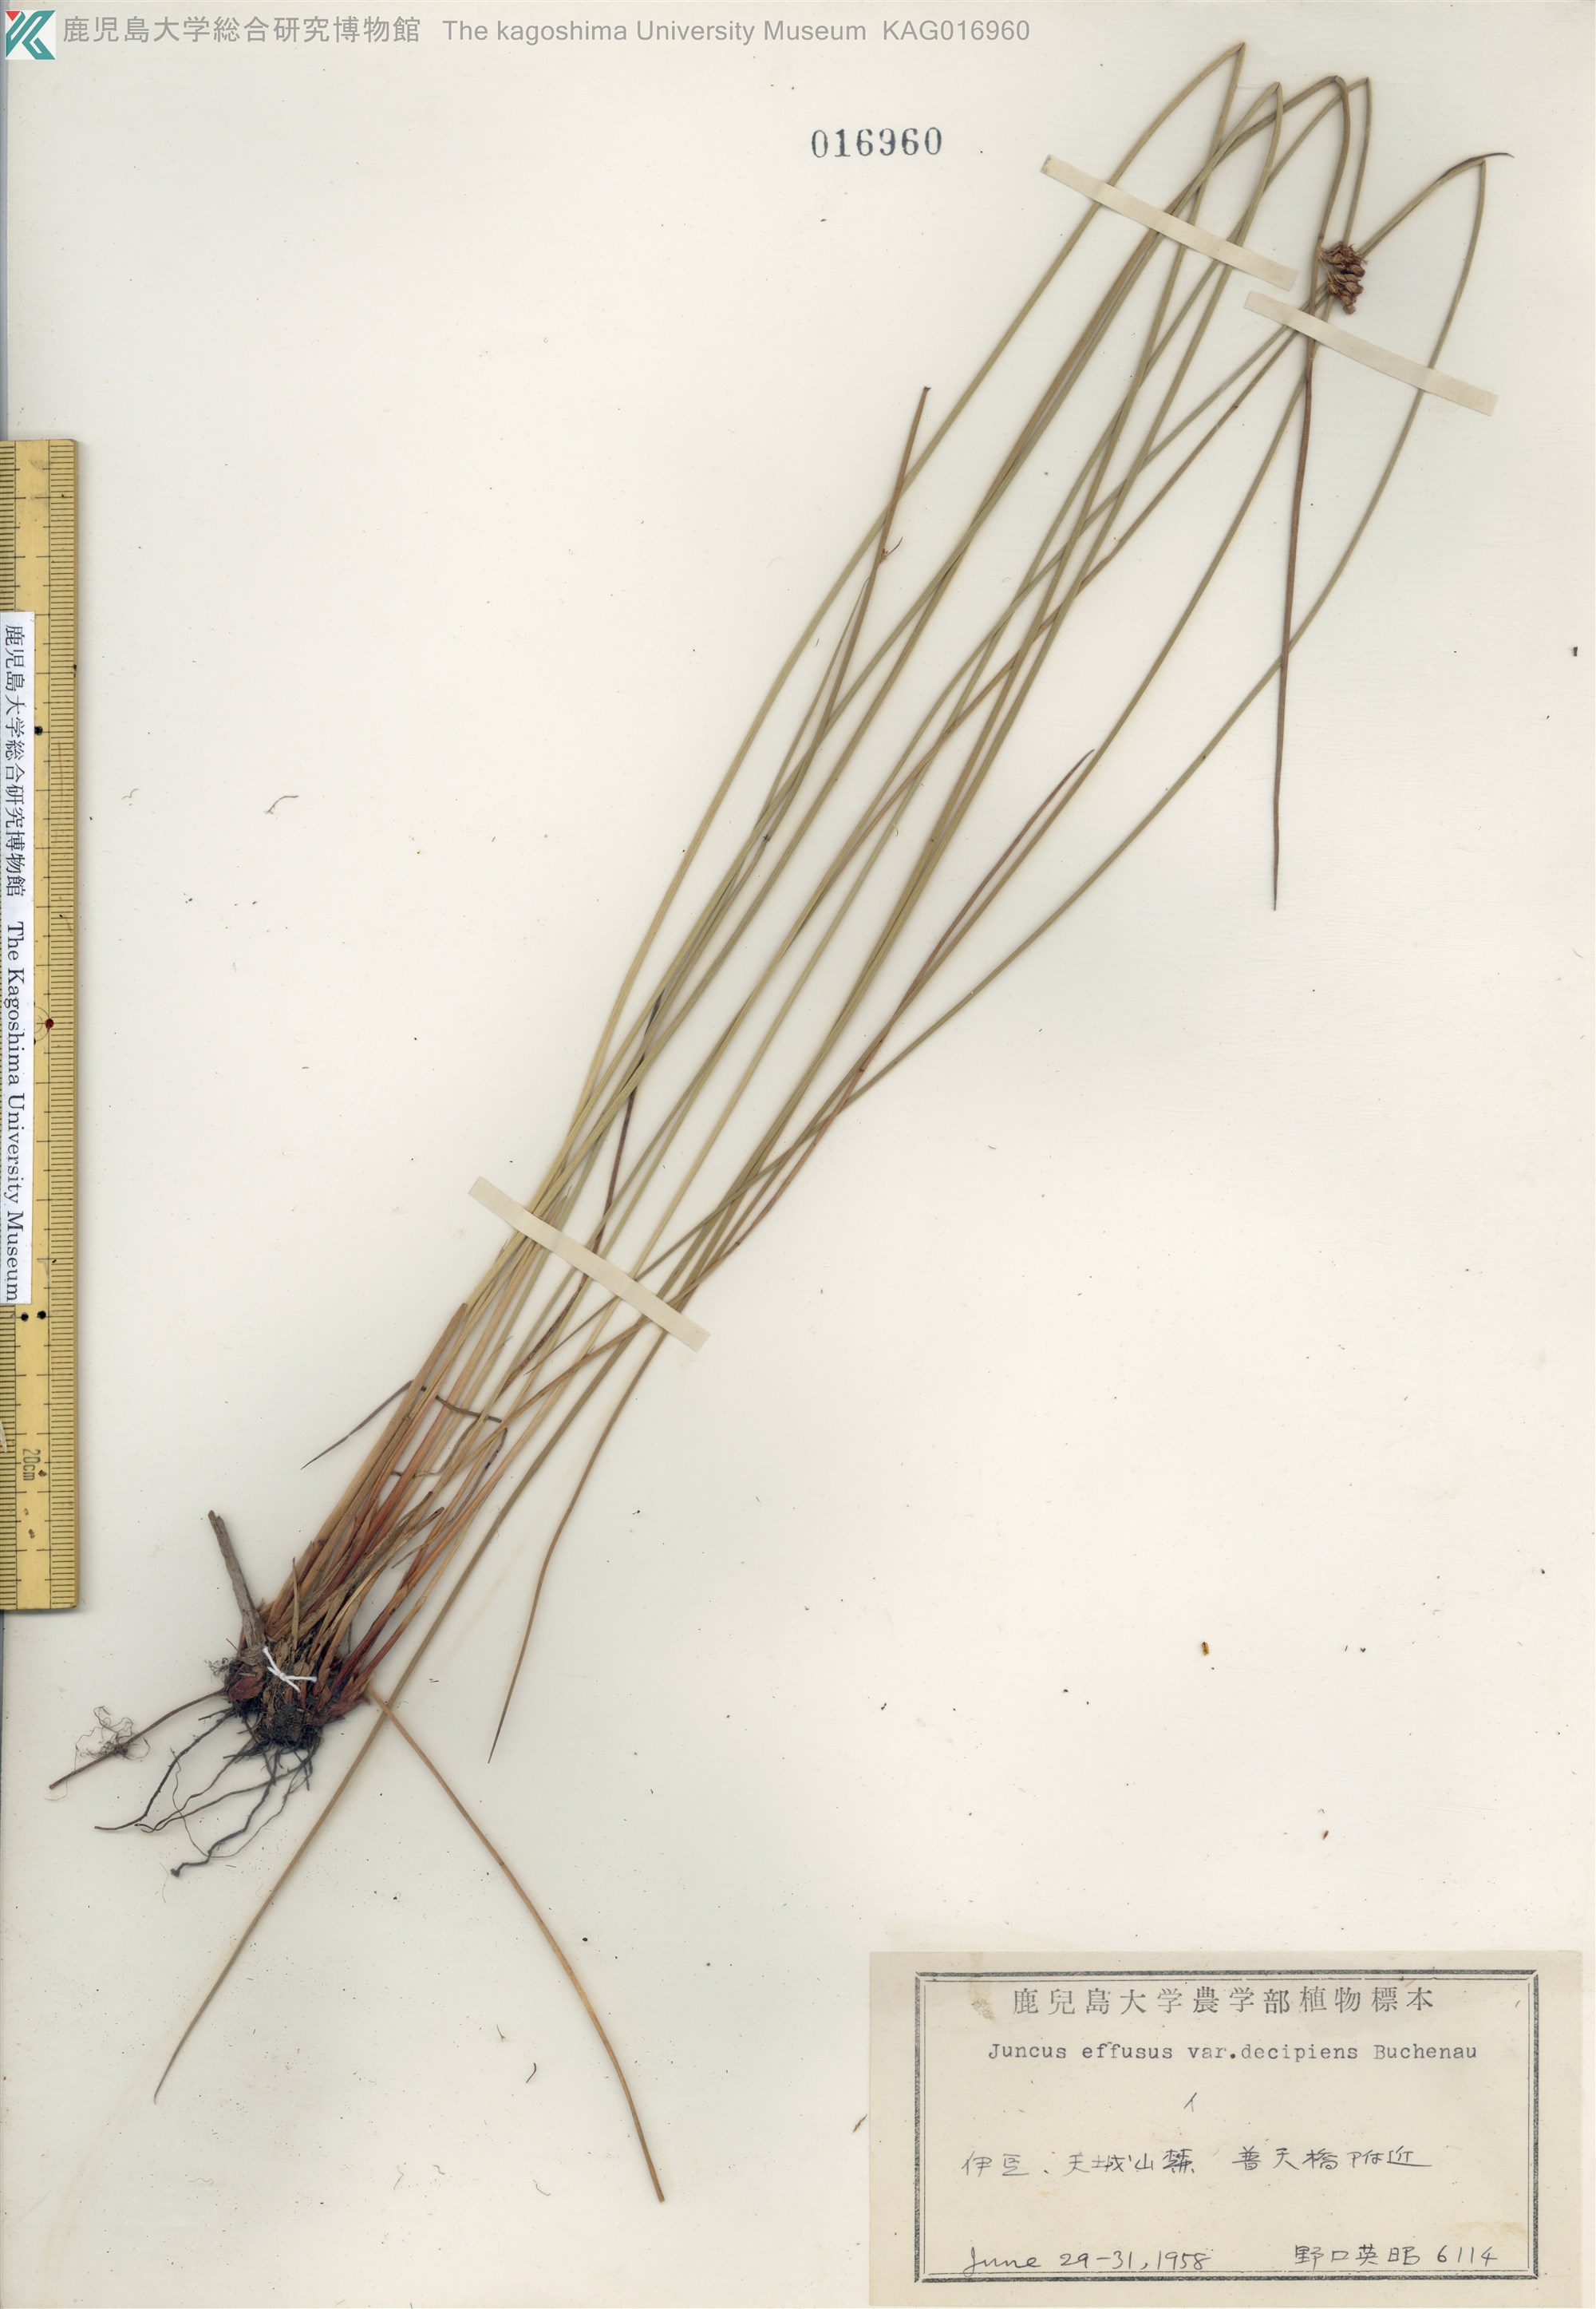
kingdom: Plantae
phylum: Tracheophyta
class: Liliopsida
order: Poales
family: Juncaceae
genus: Juncus
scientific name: Juncus decipiens
